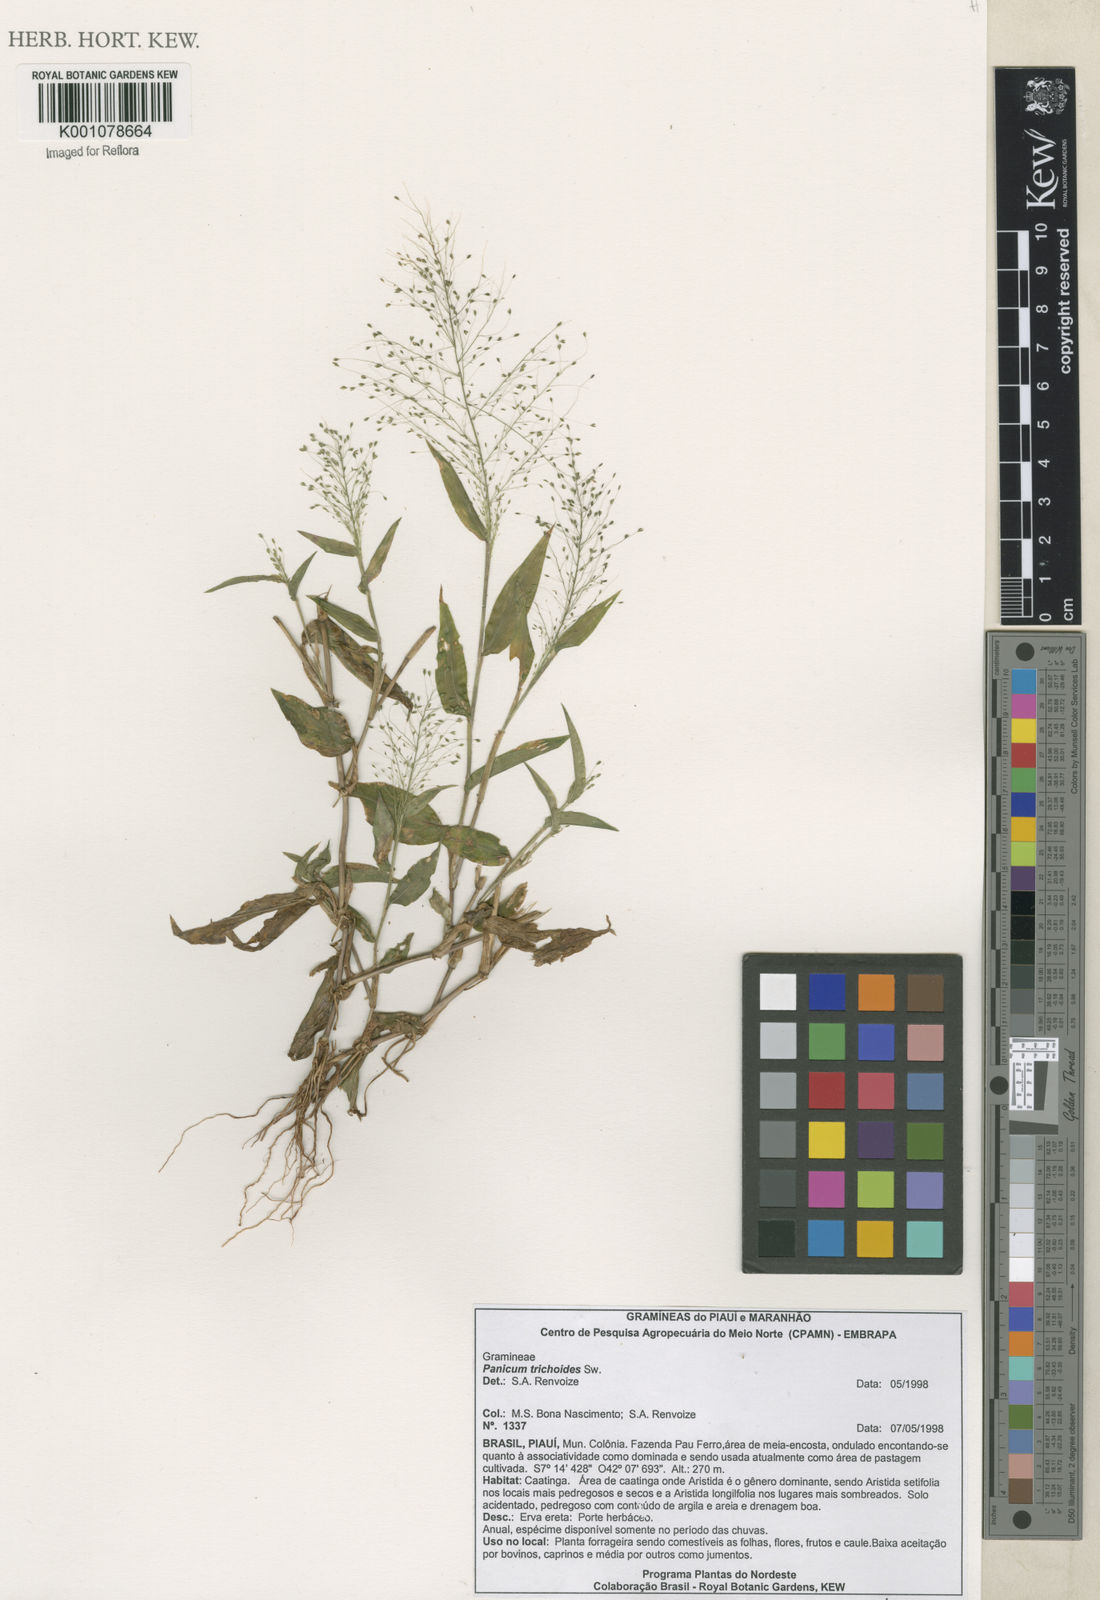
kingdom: Plantae
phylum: Tracheophyta
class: Liliopsida
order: Poales
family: Poaceae
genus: Panicum
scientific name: Panicum trichoides
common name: Tickle grass
